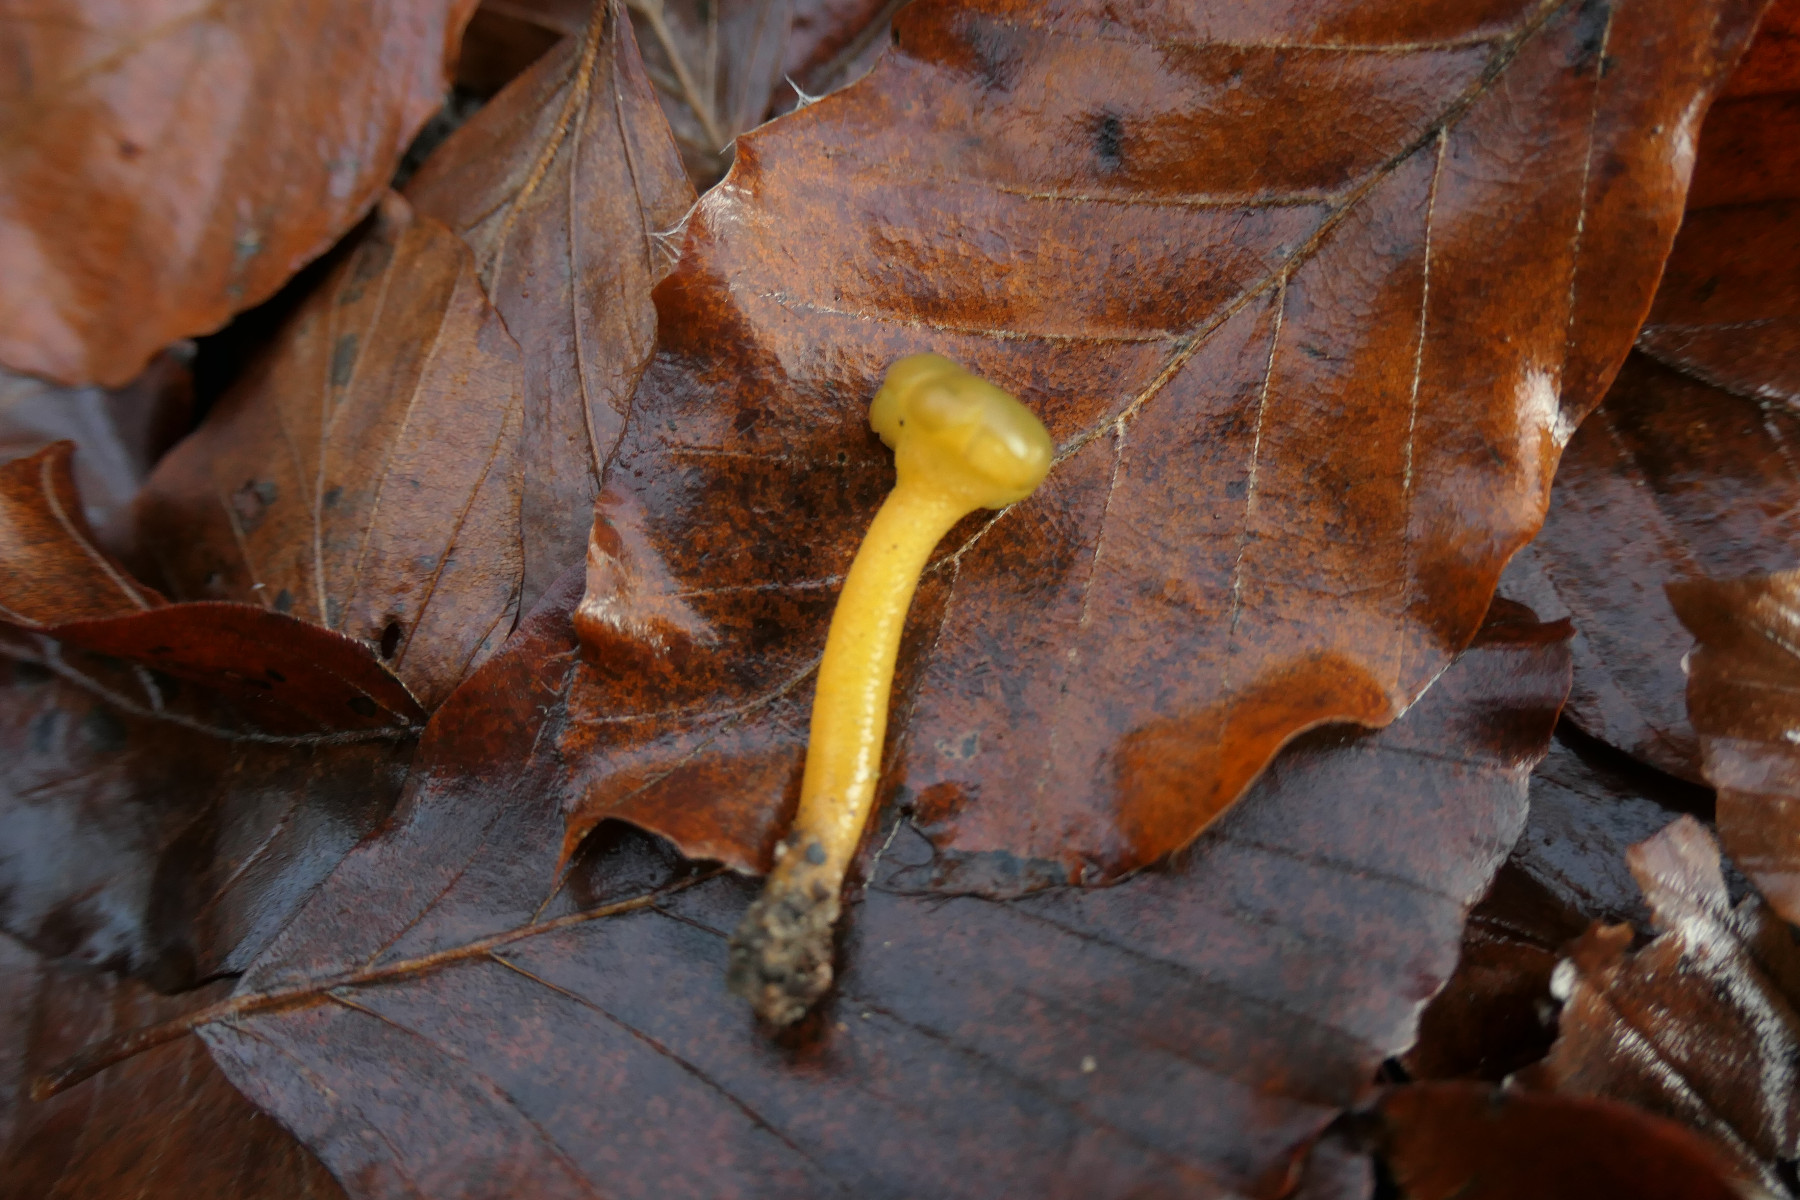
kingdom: Fungi
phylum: Ascomycota
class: Leotiomycetes
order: Leotiales
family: Leotiaceae
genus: Leotia
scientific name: Leotia lubrica
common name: ravsvamp
